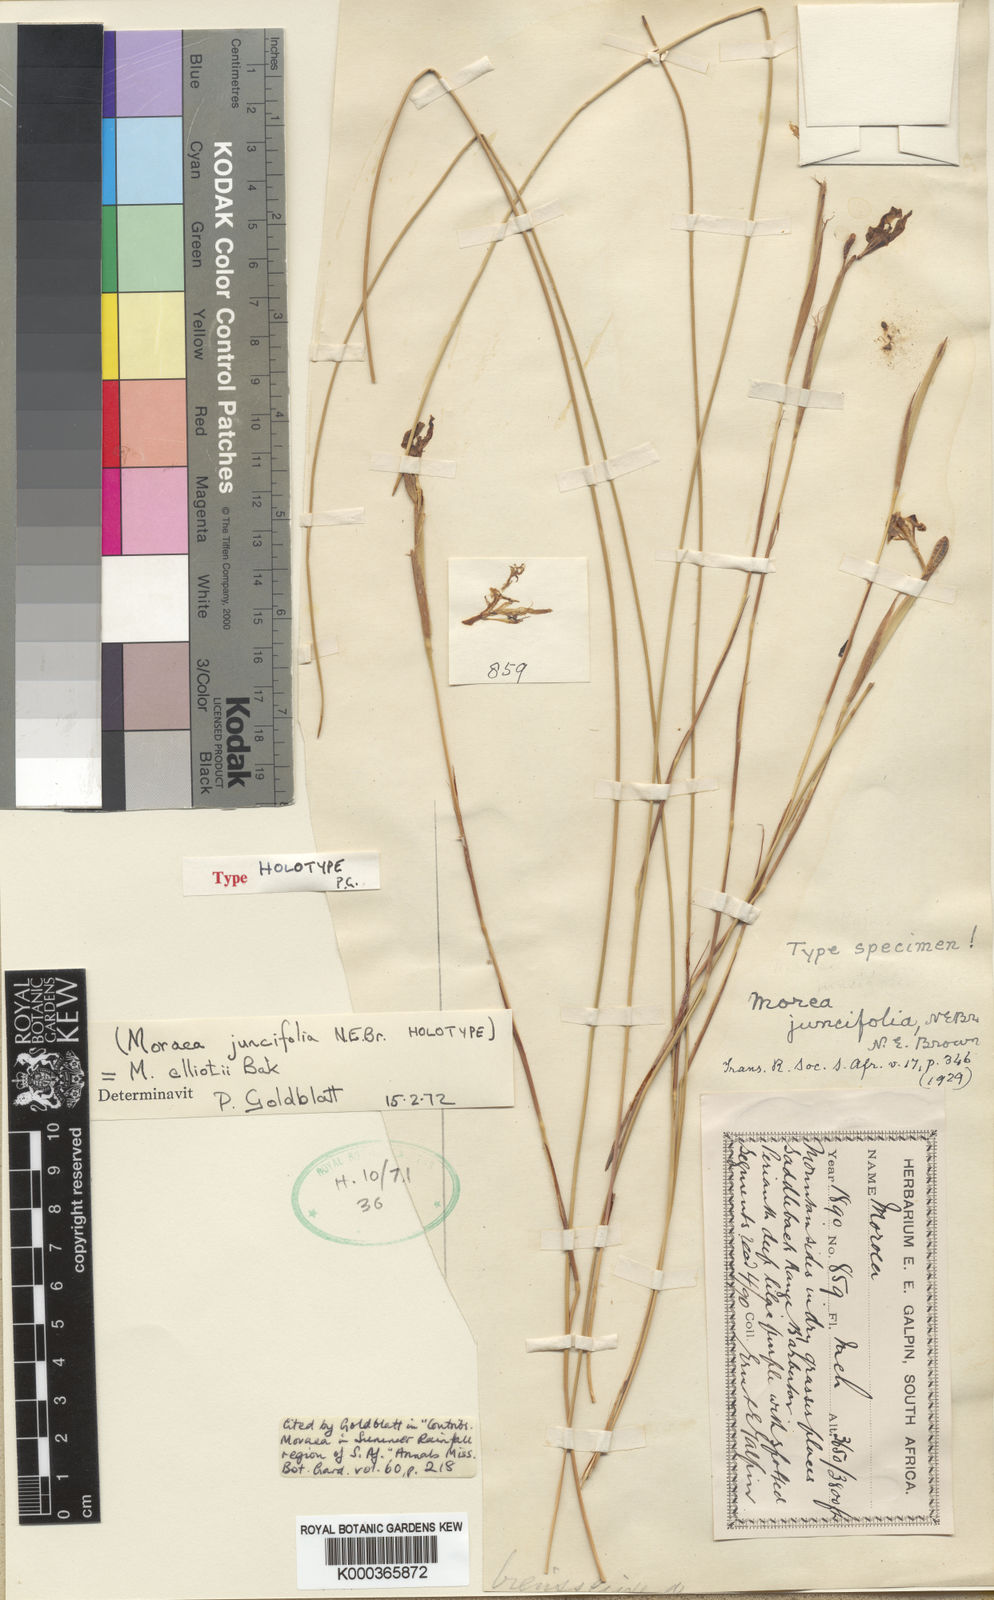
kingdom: Plantae
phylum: Tracheophyta
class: Liliopsida
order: Asparagales
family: Iridaceae
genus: Moraea
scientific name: Moraea elliotii
